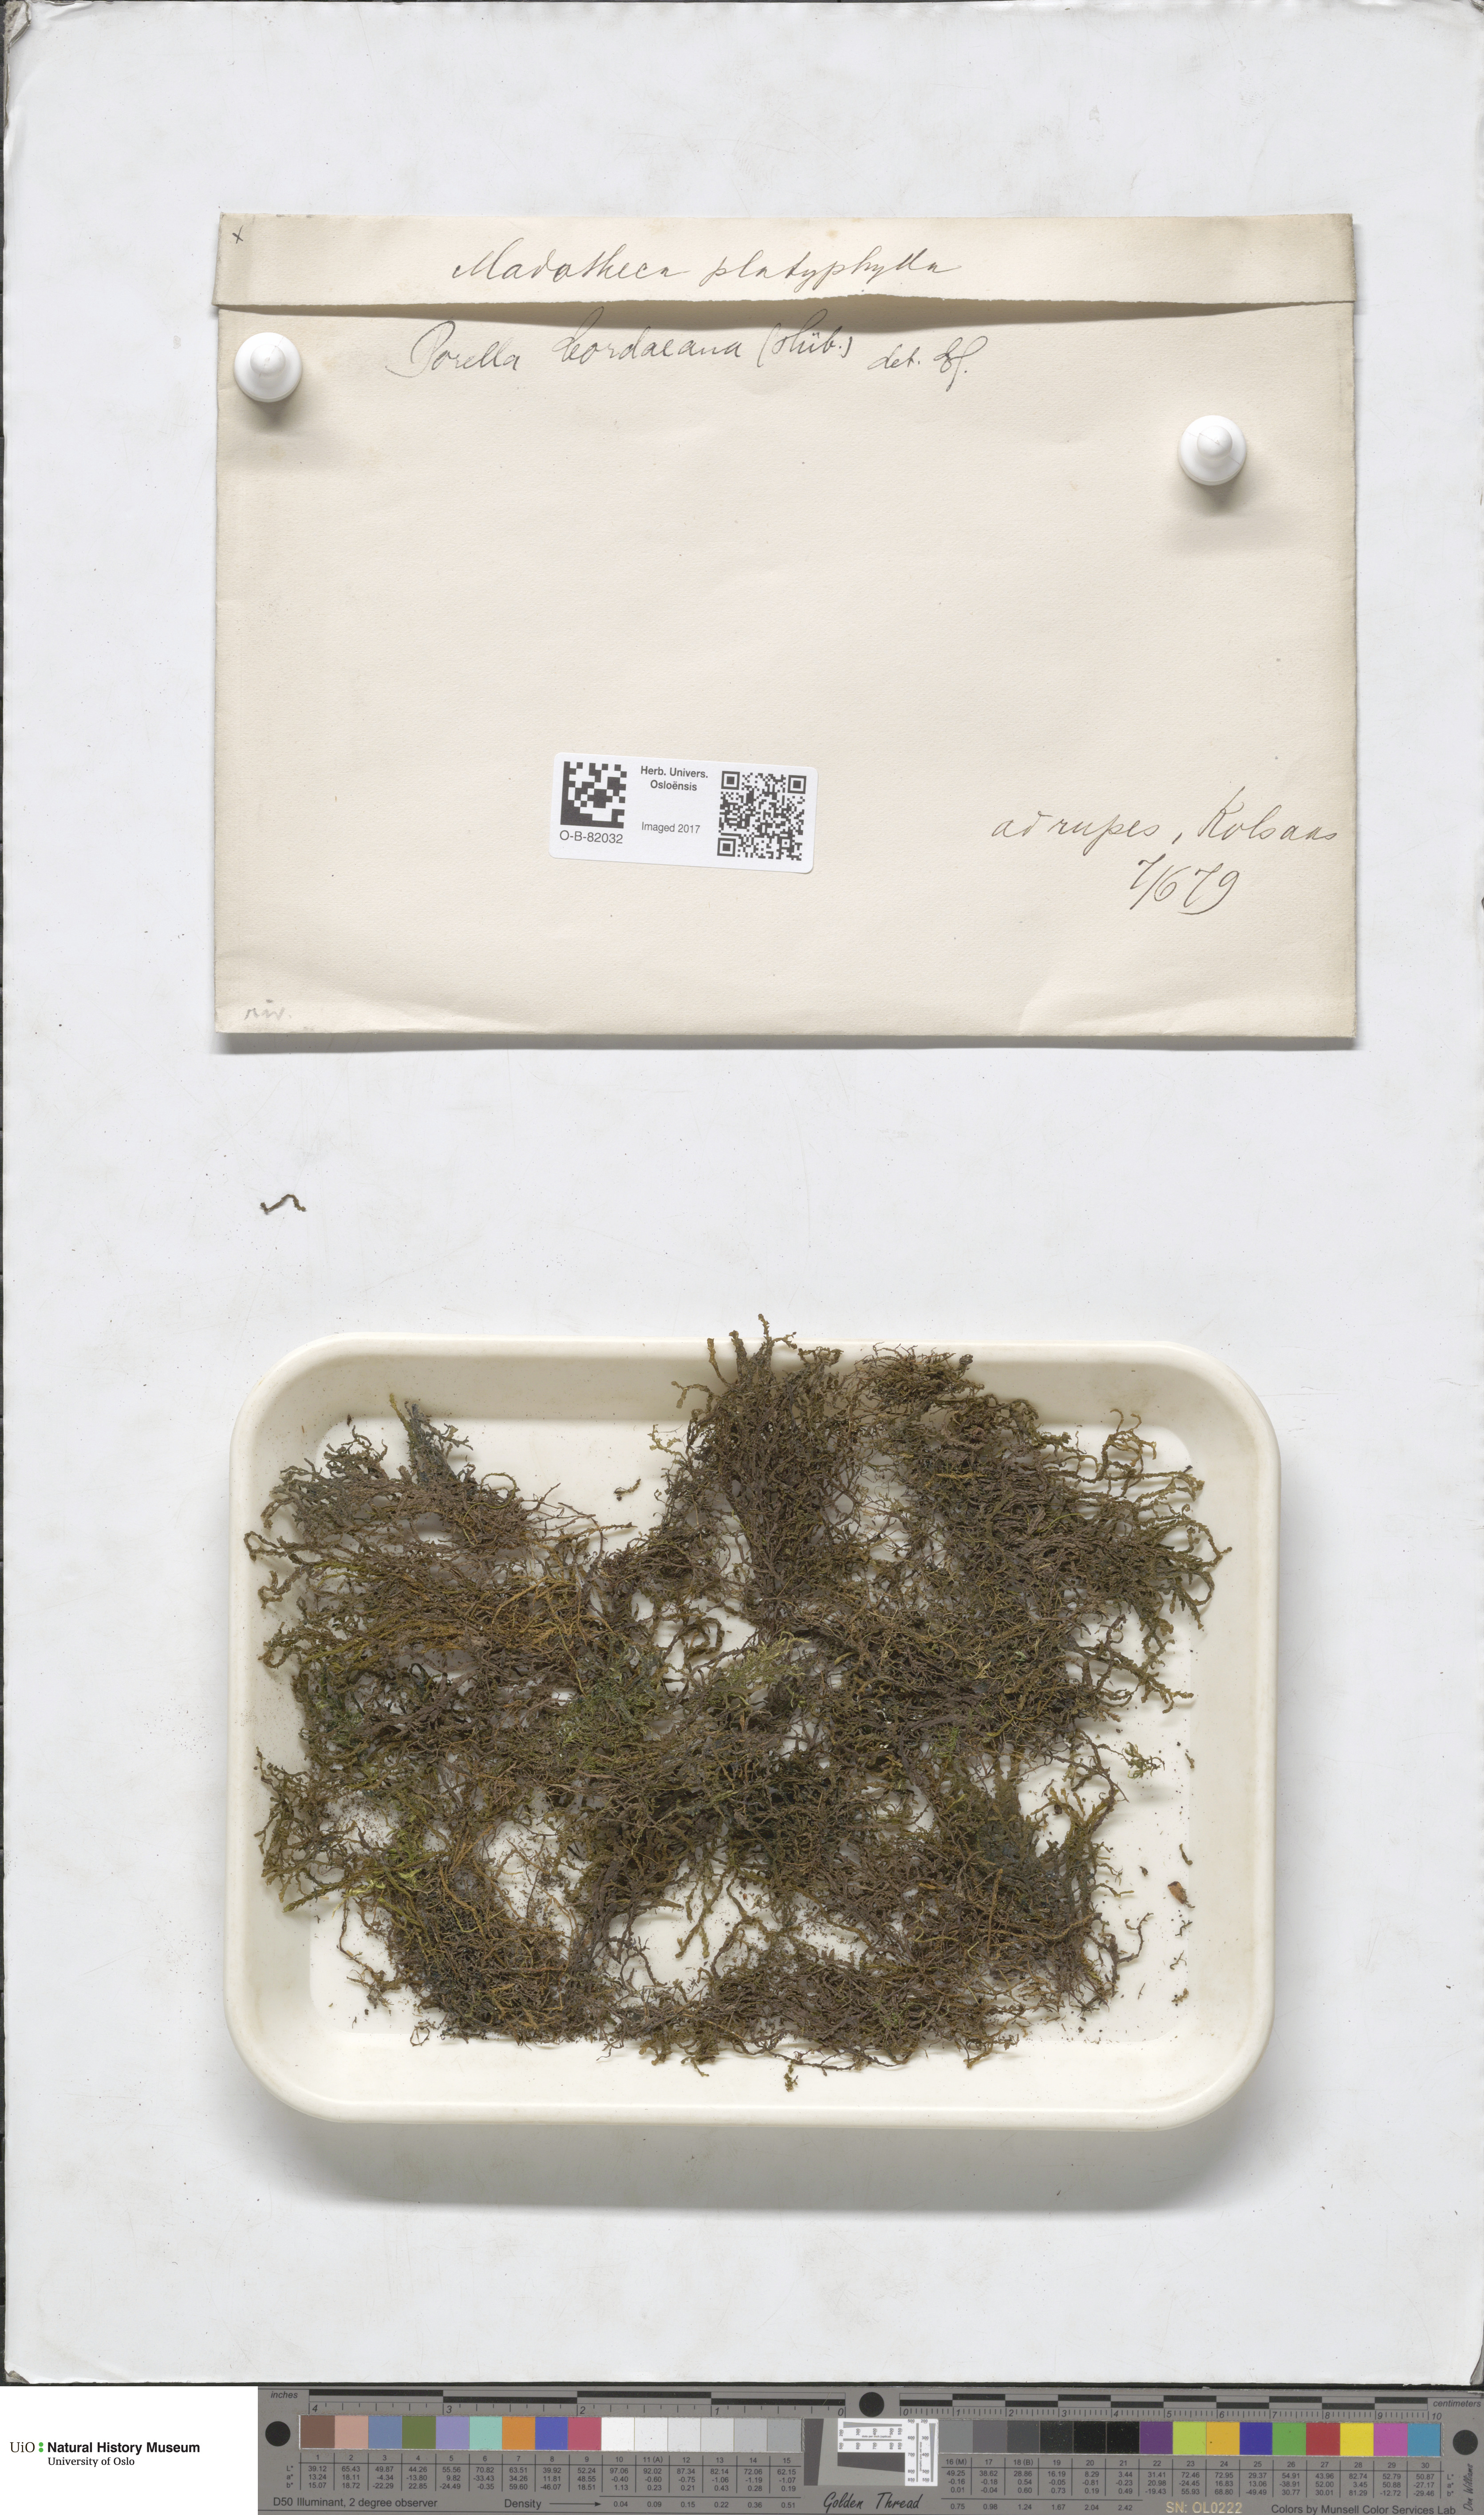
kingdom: Plantae
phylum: Marchantiophyta
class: Jungermanniopsida
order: Porellales
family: Porellaceae
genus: Porella
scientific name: Porella cordaeana
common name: Cliff scalewort
